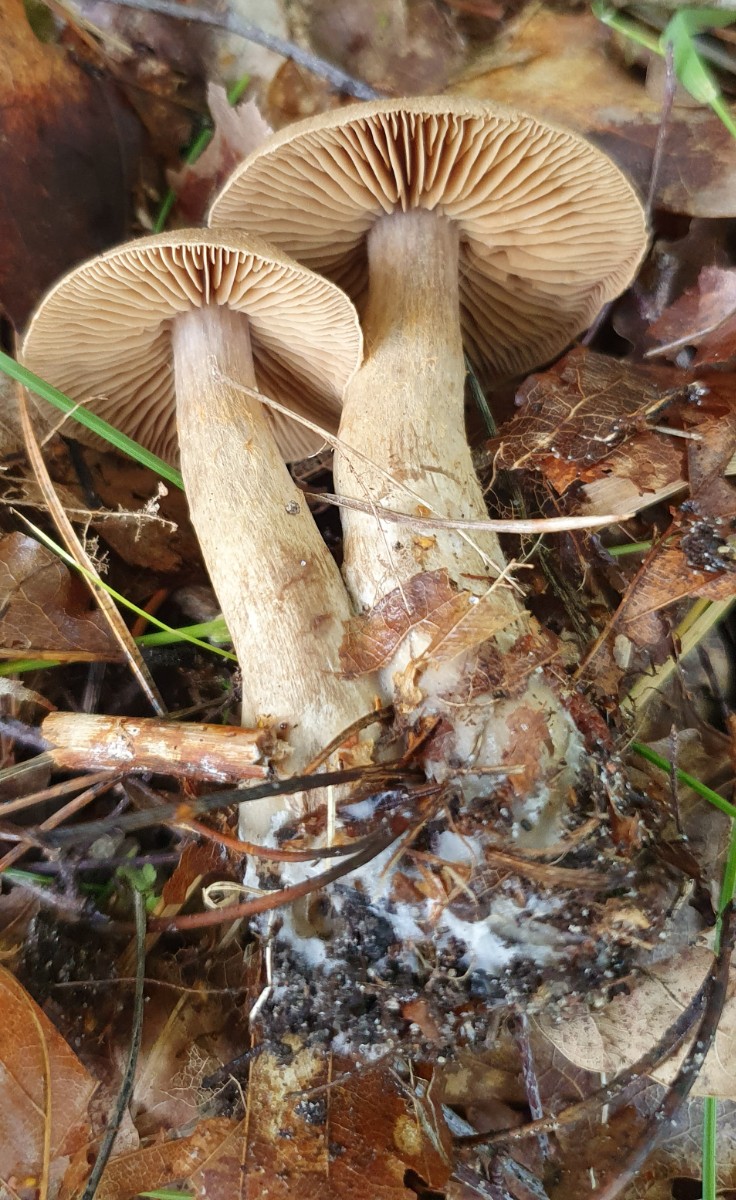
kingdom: Fungi
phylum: Basidiomycota
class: Agaricomycetes
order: Agaricales
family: Cortinariaceae
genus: Cortinarius
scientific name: Cortinarius
